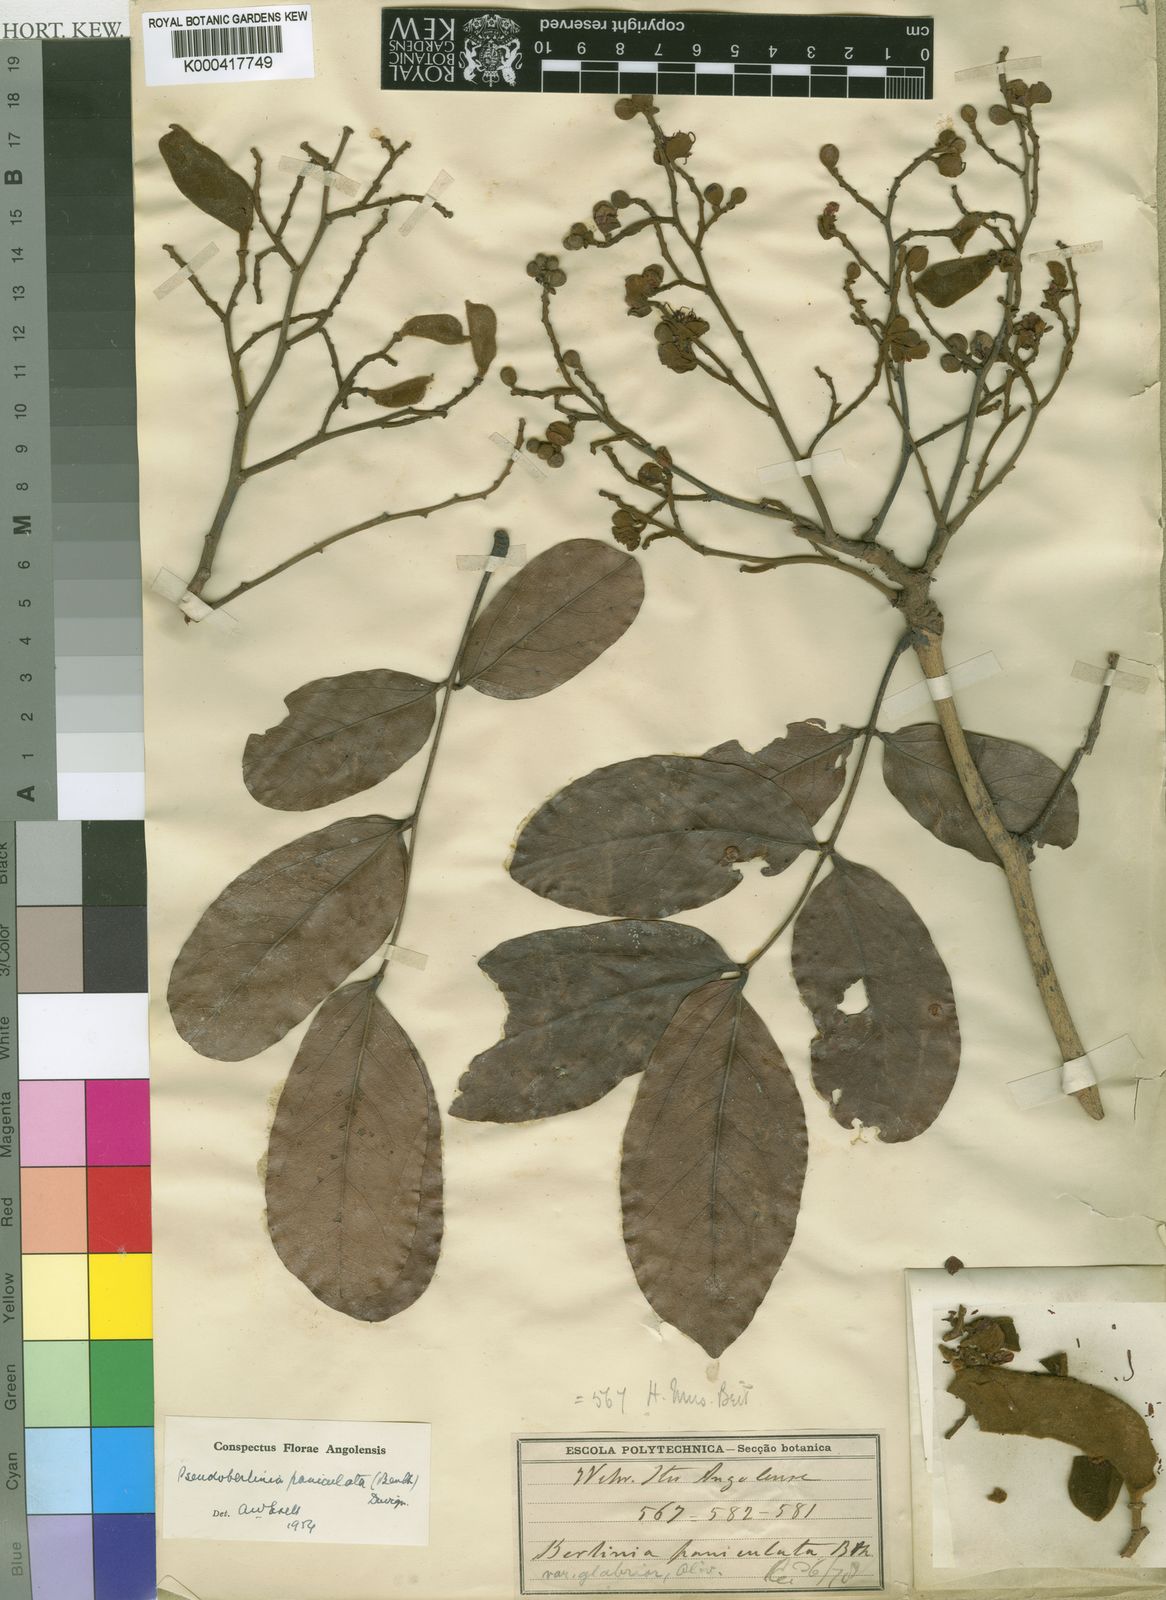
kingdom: Plantae
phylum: Tracheophyta
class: Magnoliopsida
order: Fabales
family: Fabaceae
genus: Julbernardia
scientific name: Julbernardia paniculata
